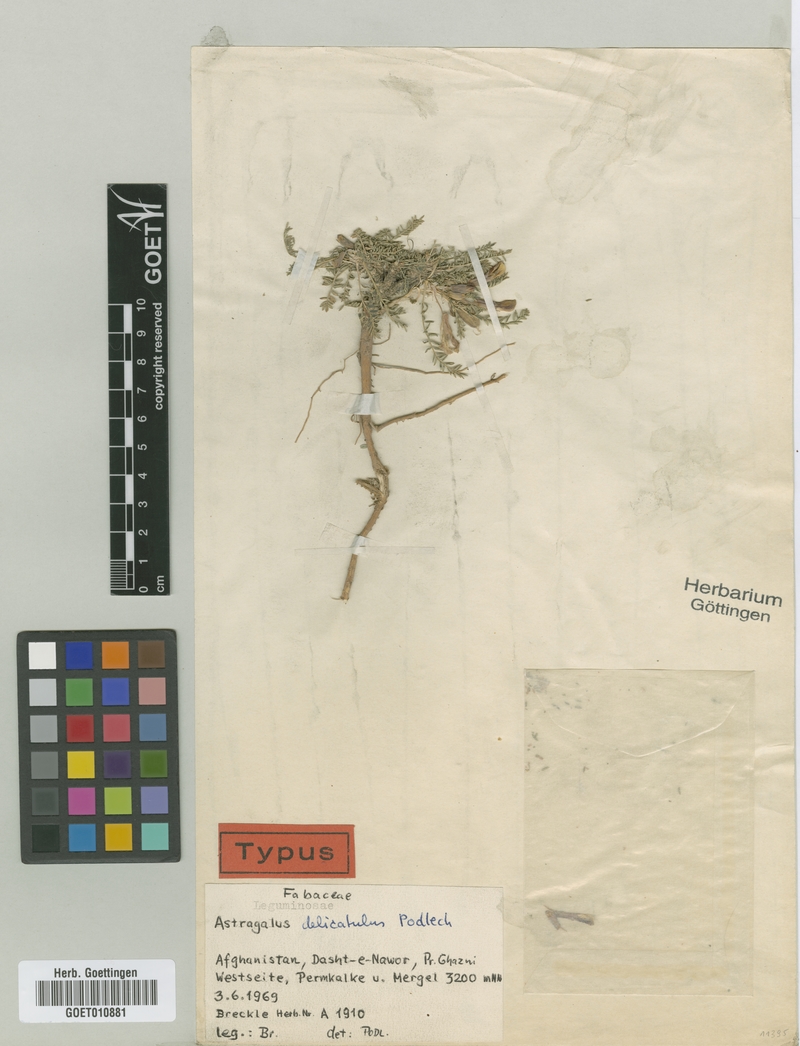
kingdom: Plantae
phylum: Tracheophyta
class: Magnoliopsida
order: Fabales
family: Fabaceae
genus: Astragalus
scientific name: Astragalus delicatulus
